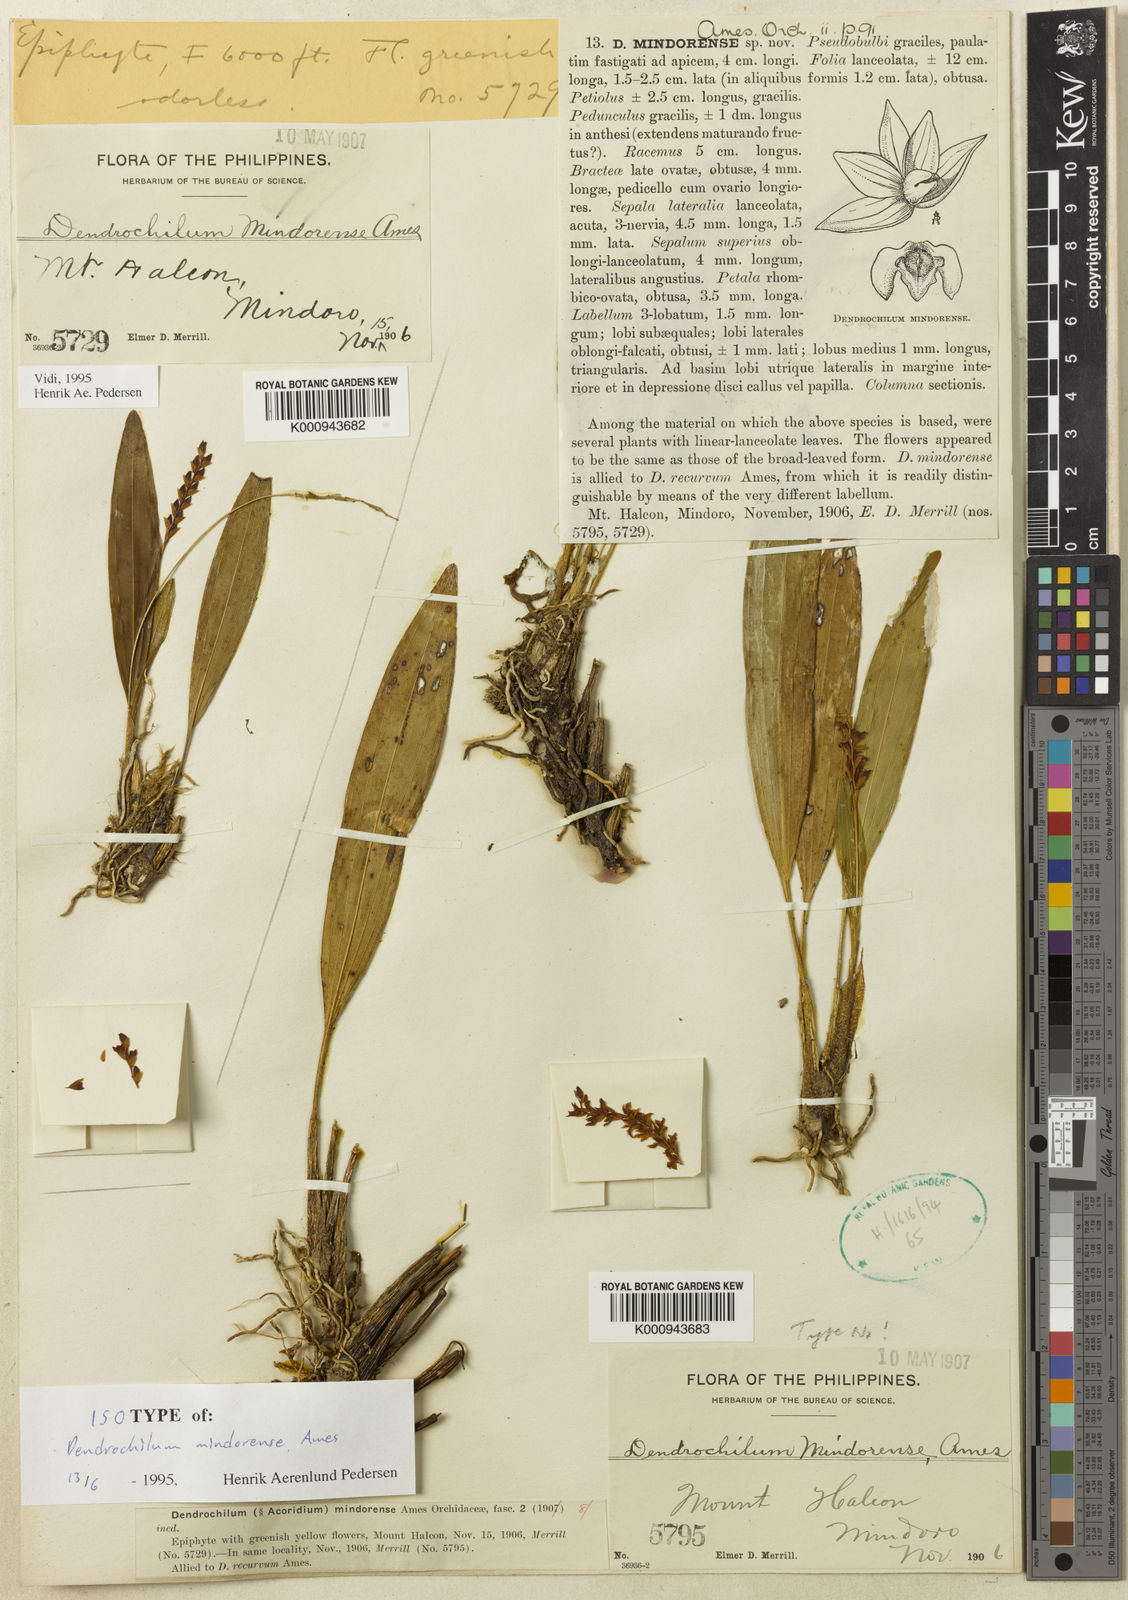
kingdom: Plantae
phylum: Tracheophyta
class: Liliopsida
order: Asparagales
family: Orchidaceae
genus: Coelogyne
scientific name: Coelogyne mindorensis
